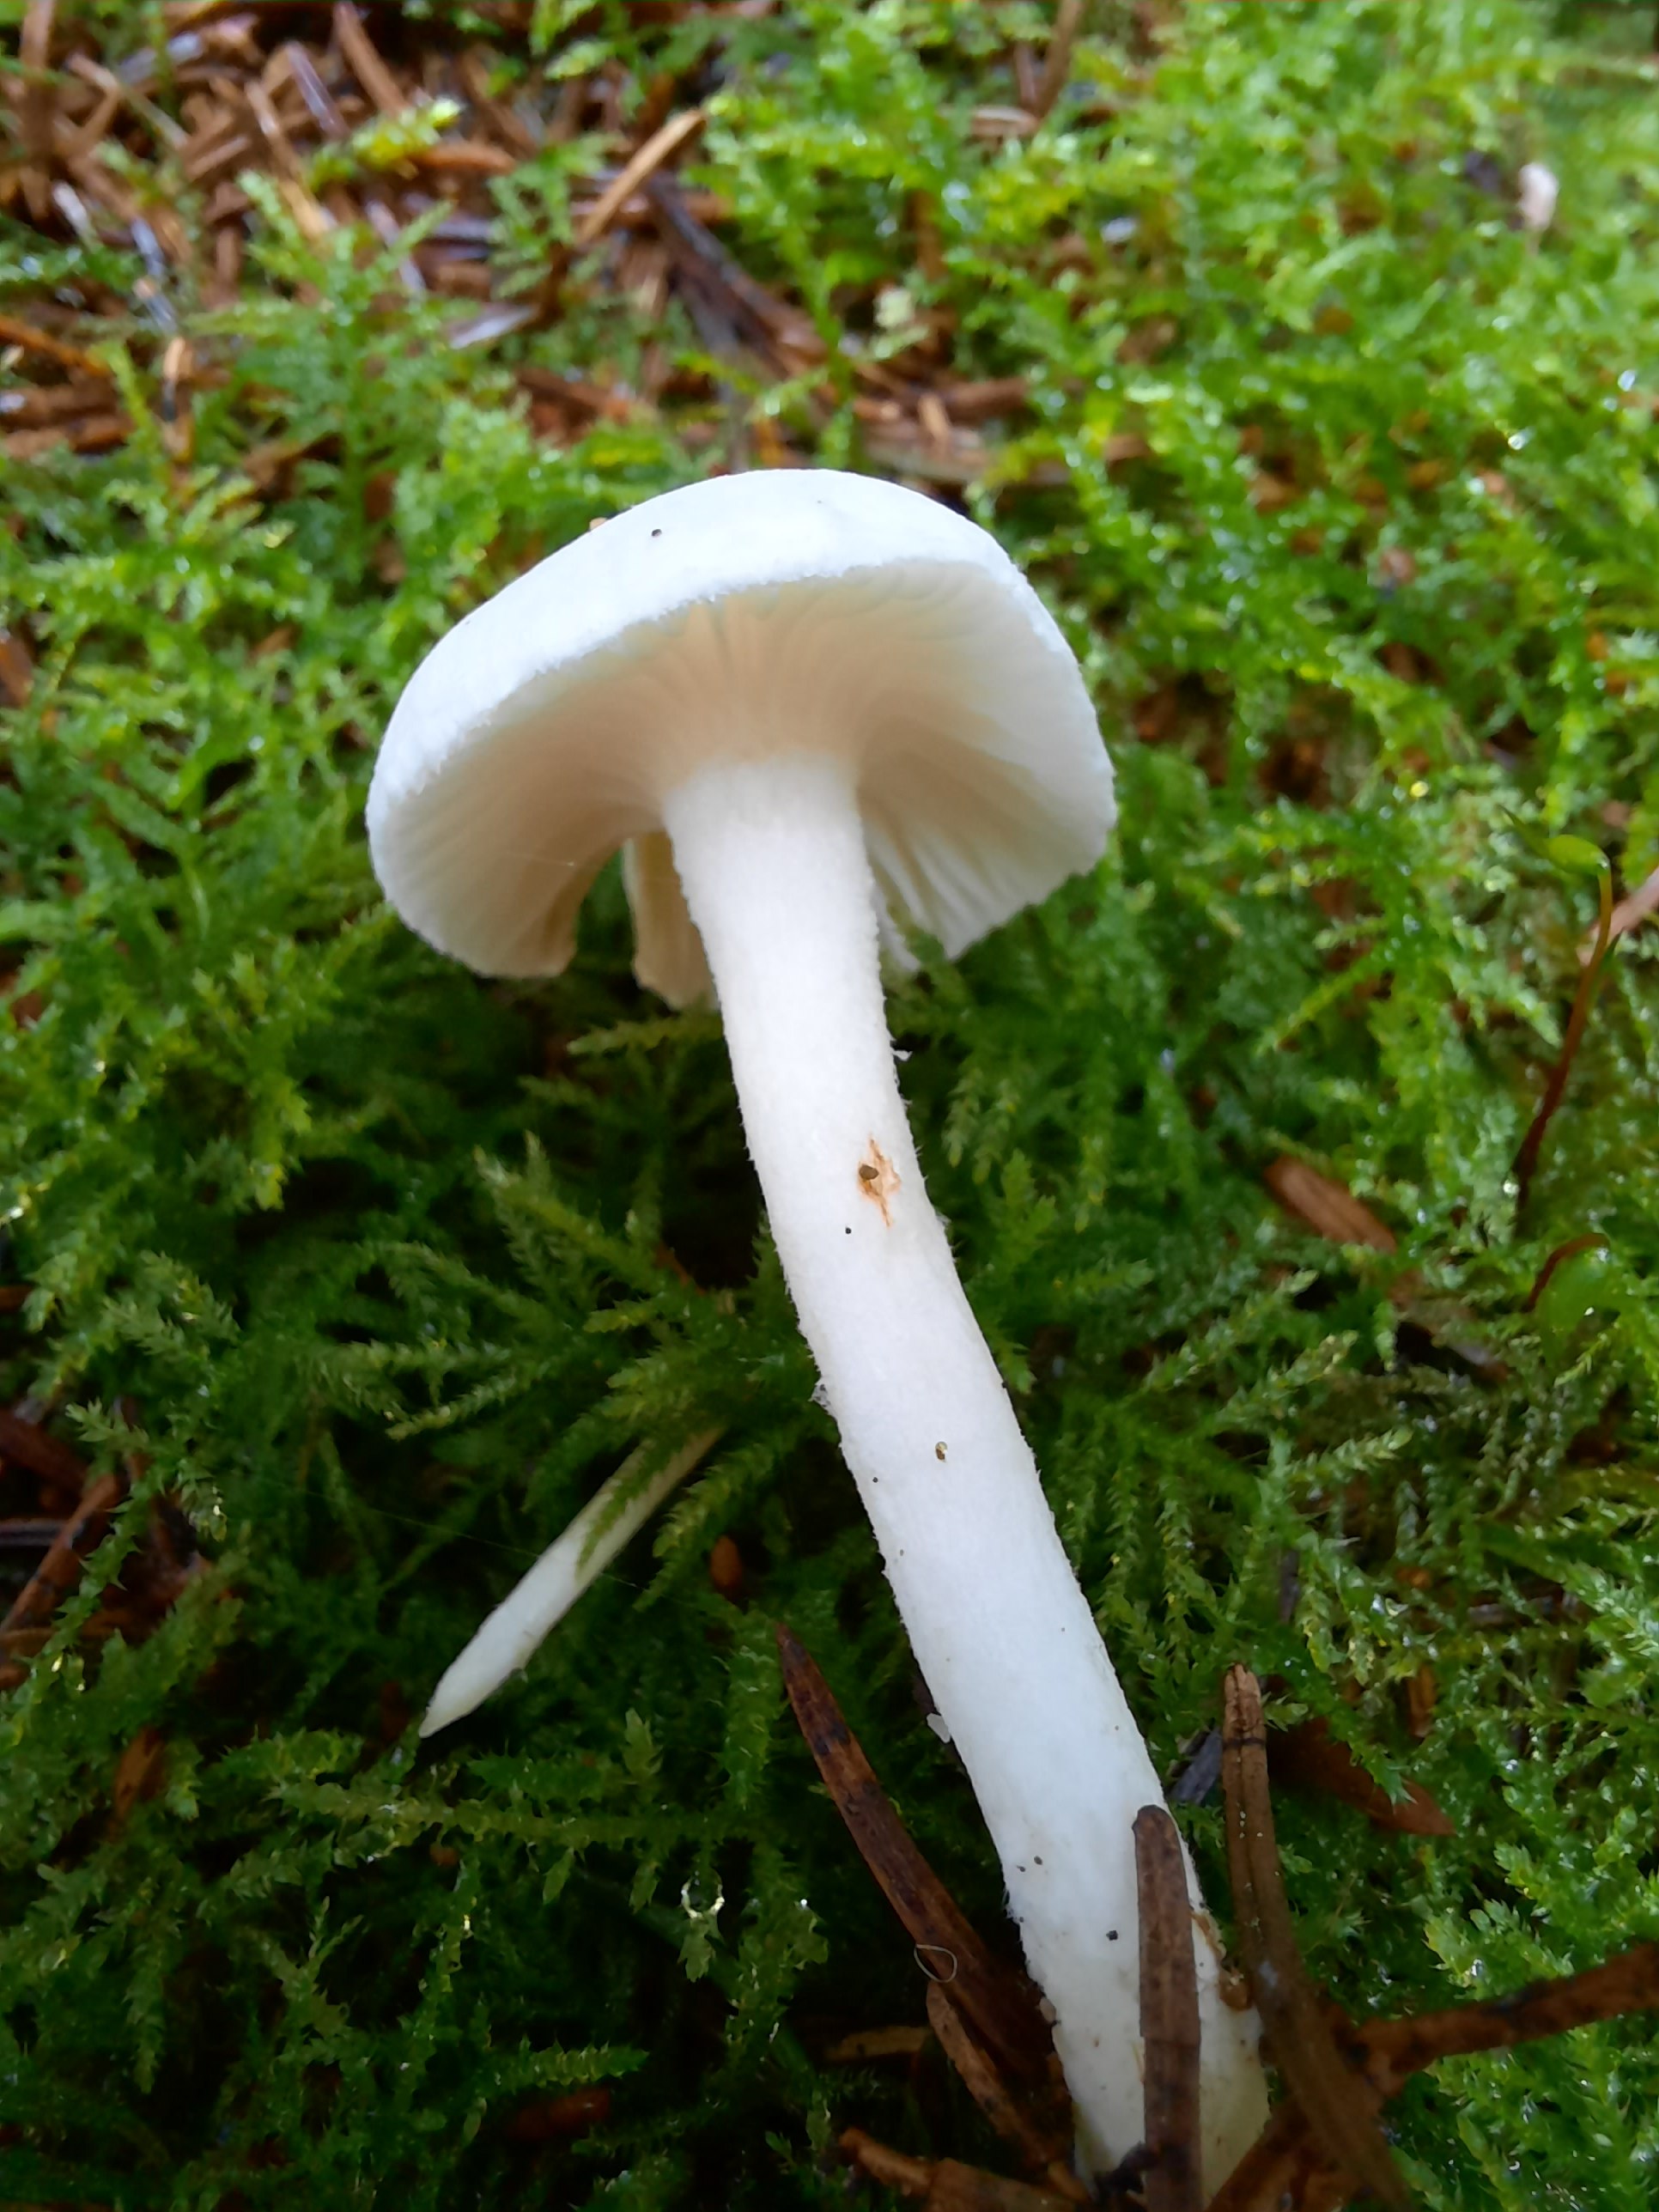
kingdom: Fungi
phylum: Basidiomycota
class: Agaricomycetes
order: Agaricales
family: Hygrophoraceae
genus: Hygrophorus
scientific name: Hygrophorus pustulatus
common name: mørkprikket sneglehat
